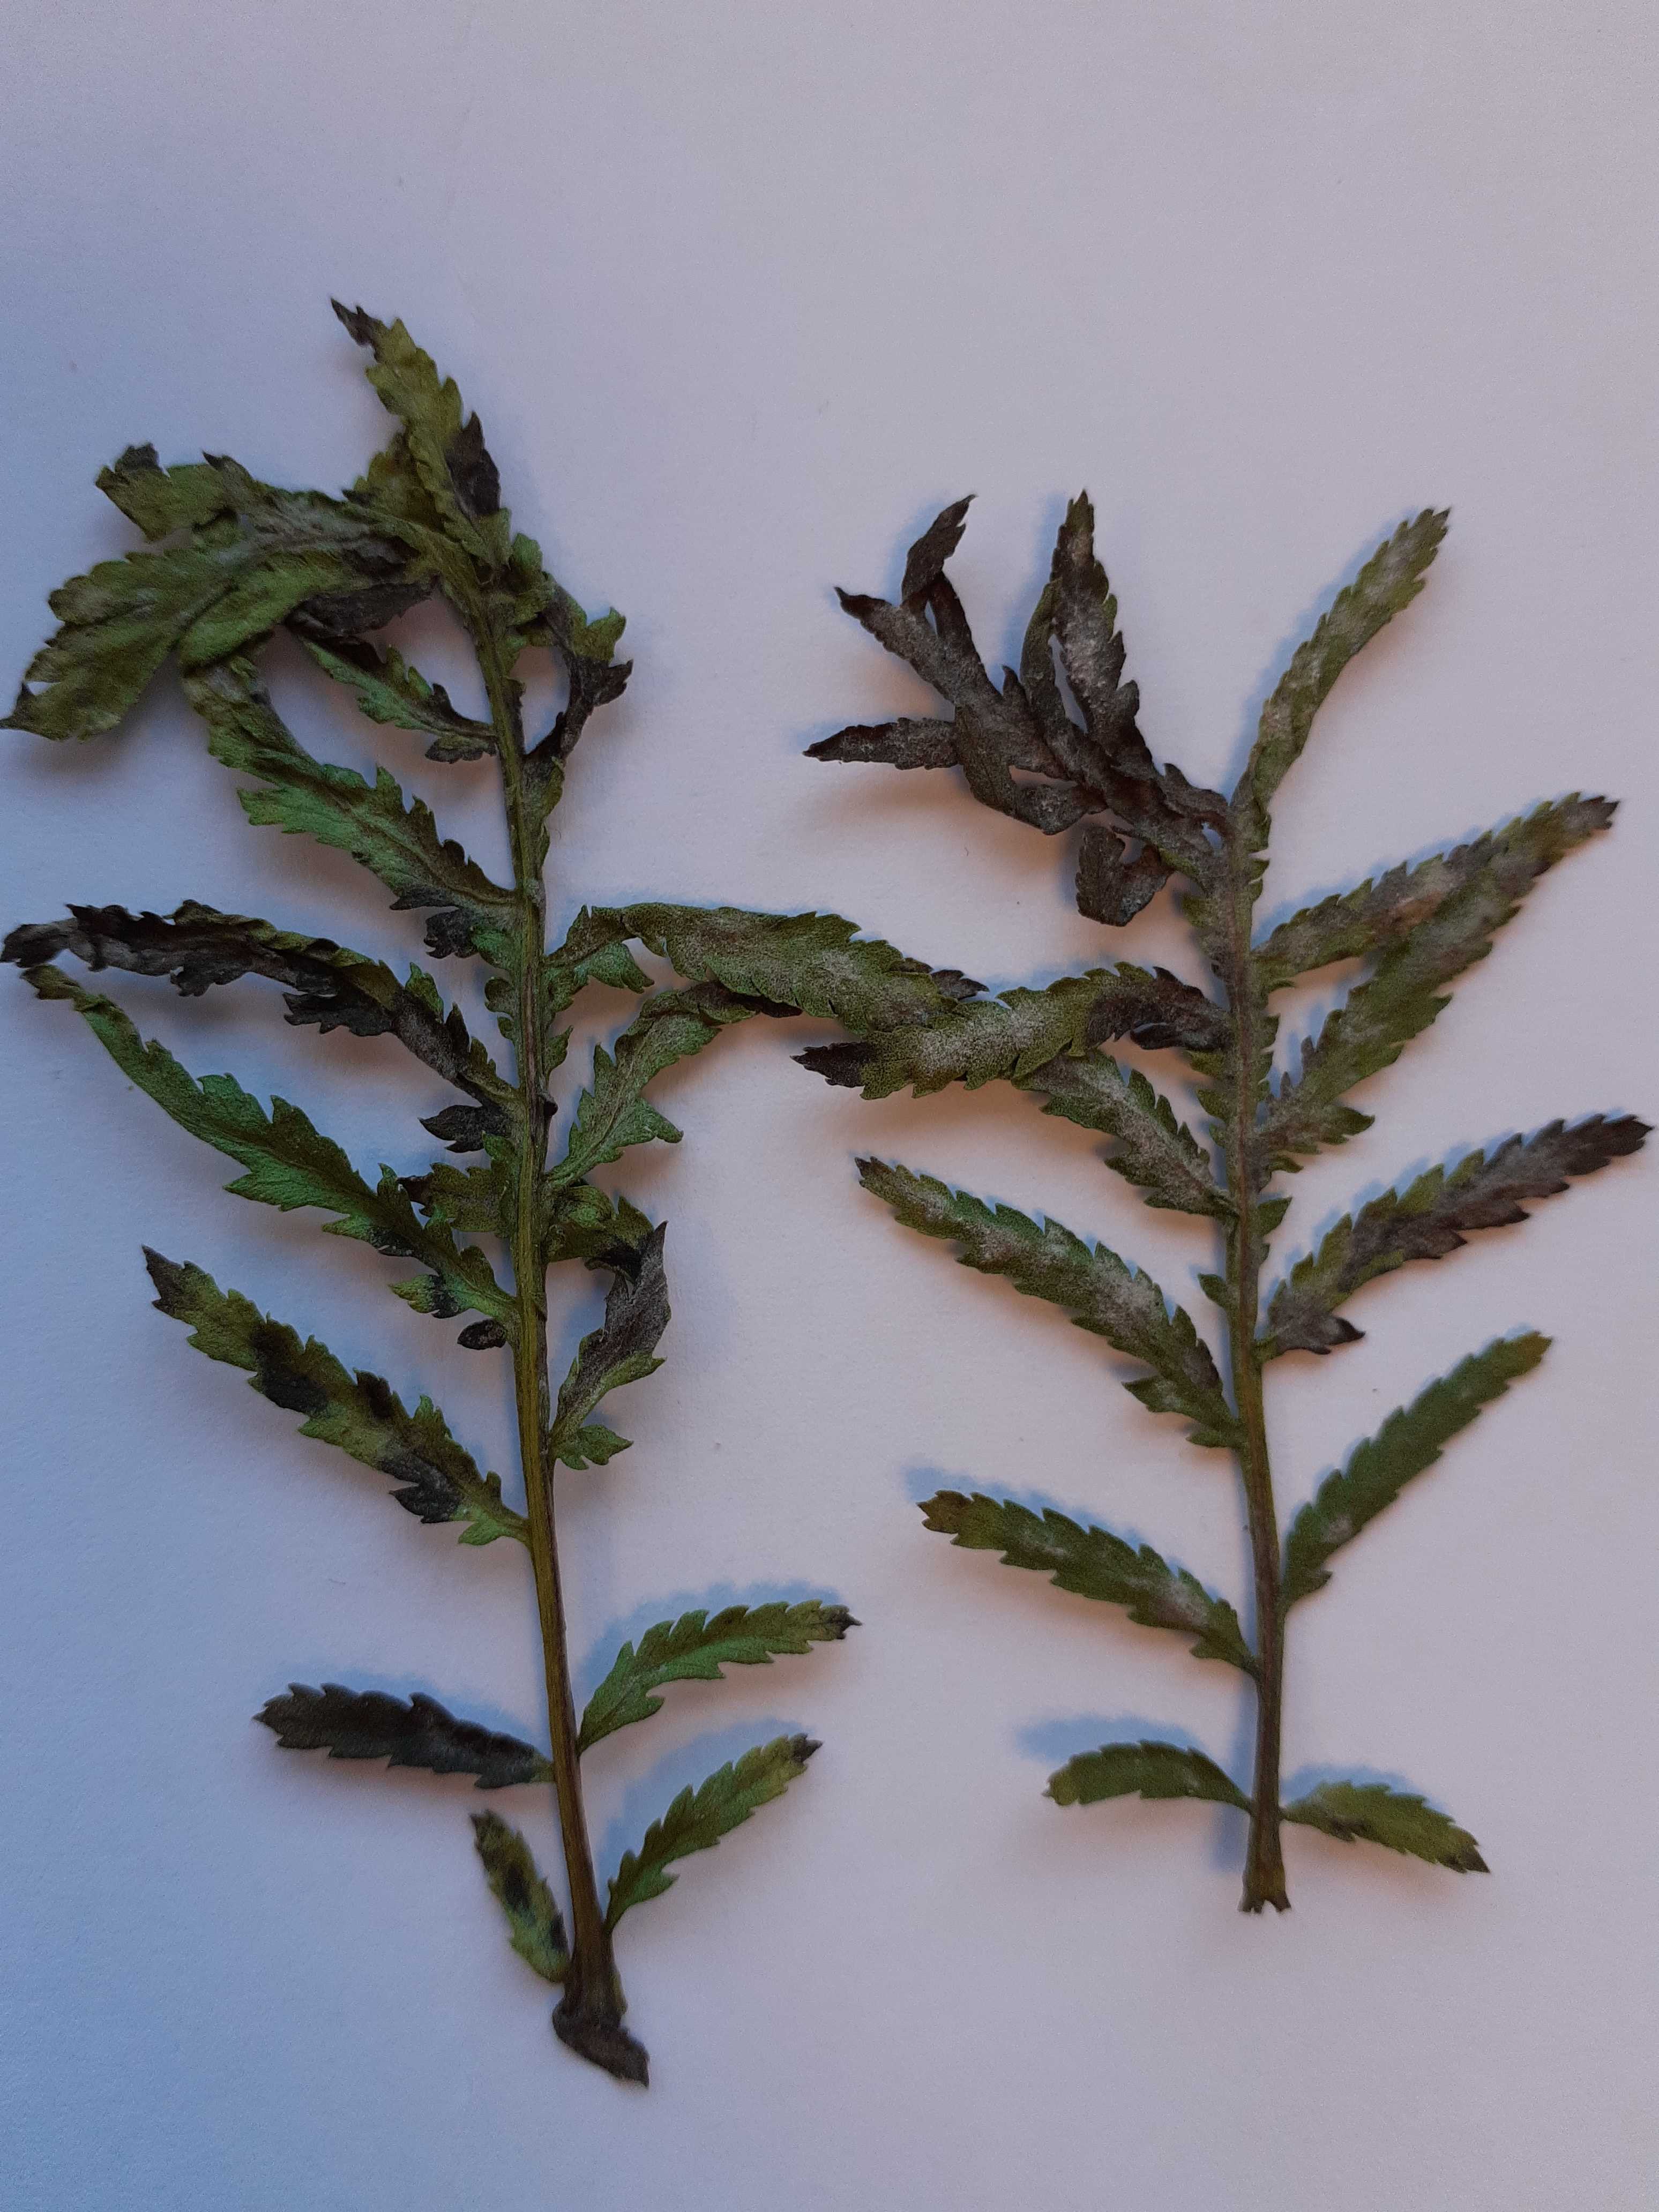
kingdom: Fungi
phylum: Ascomycota
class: Leotiomycetes
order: Helotiales
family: Erysiphaceae
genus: Golovinomyces
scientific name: Golovinomyces macrocarpus
